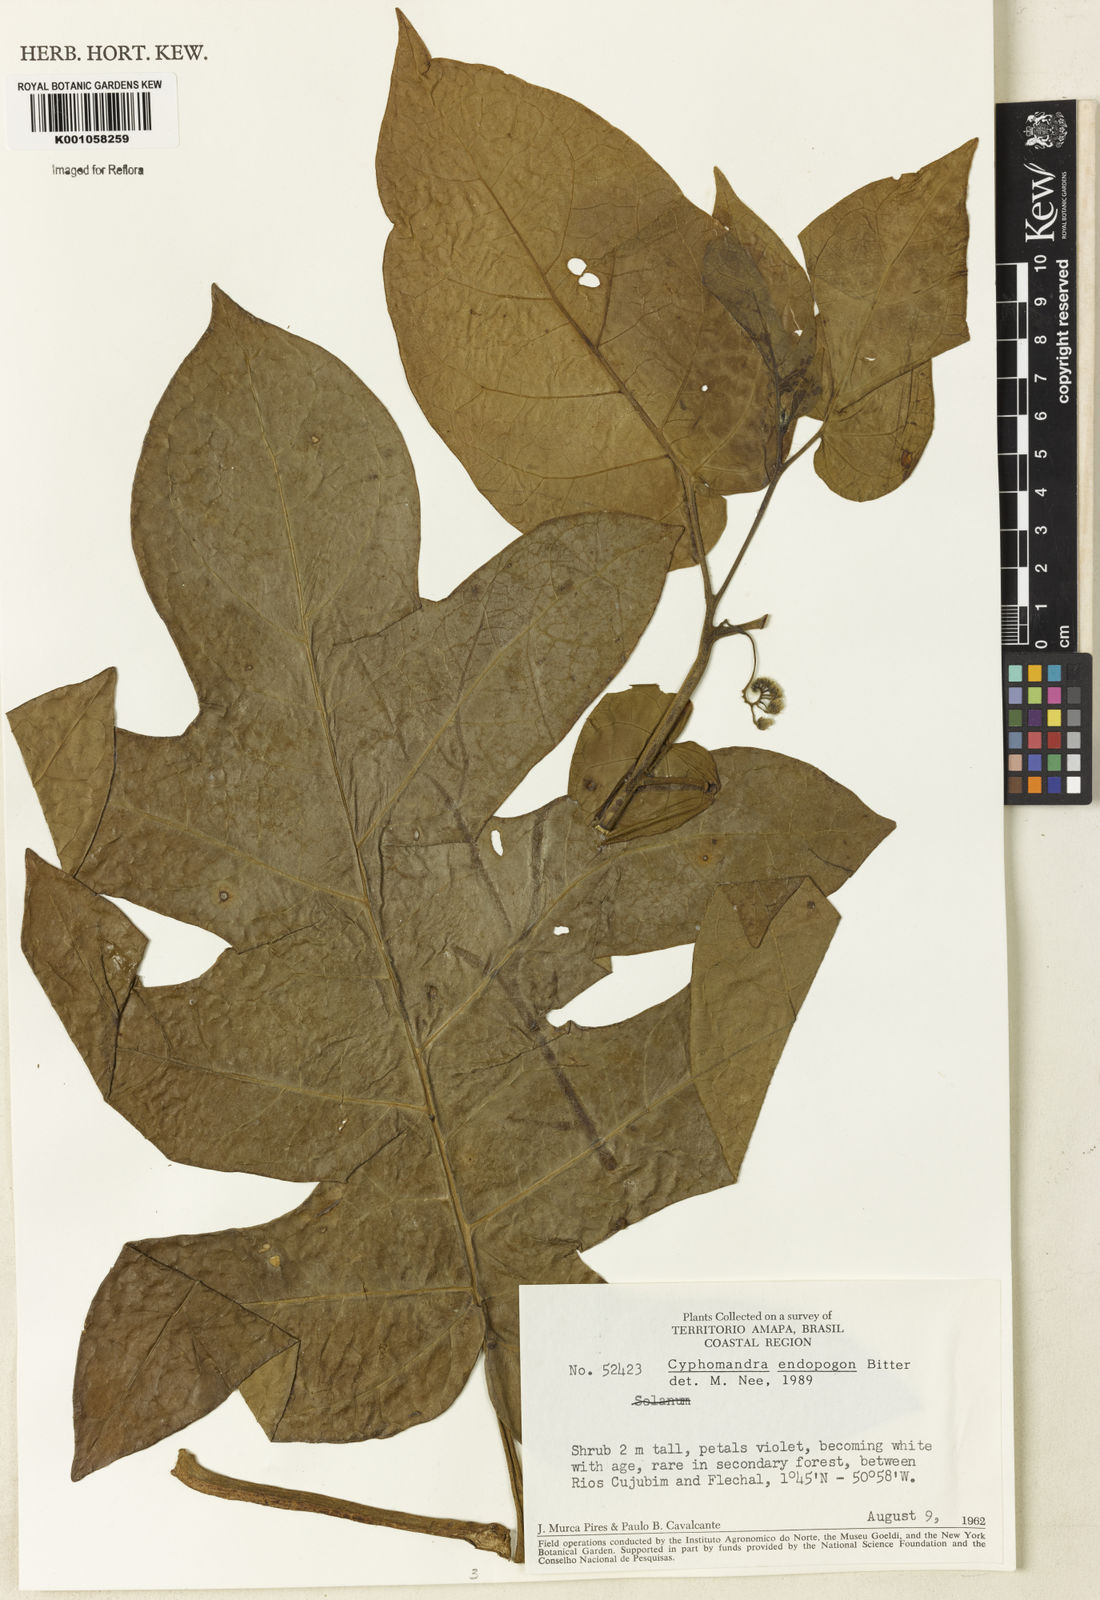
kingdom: Plantae
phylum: Tracheophyta
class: Magnoliopsida
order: Solanales
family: Solanaceae
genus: Solanum
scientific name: Solanum endopogon
